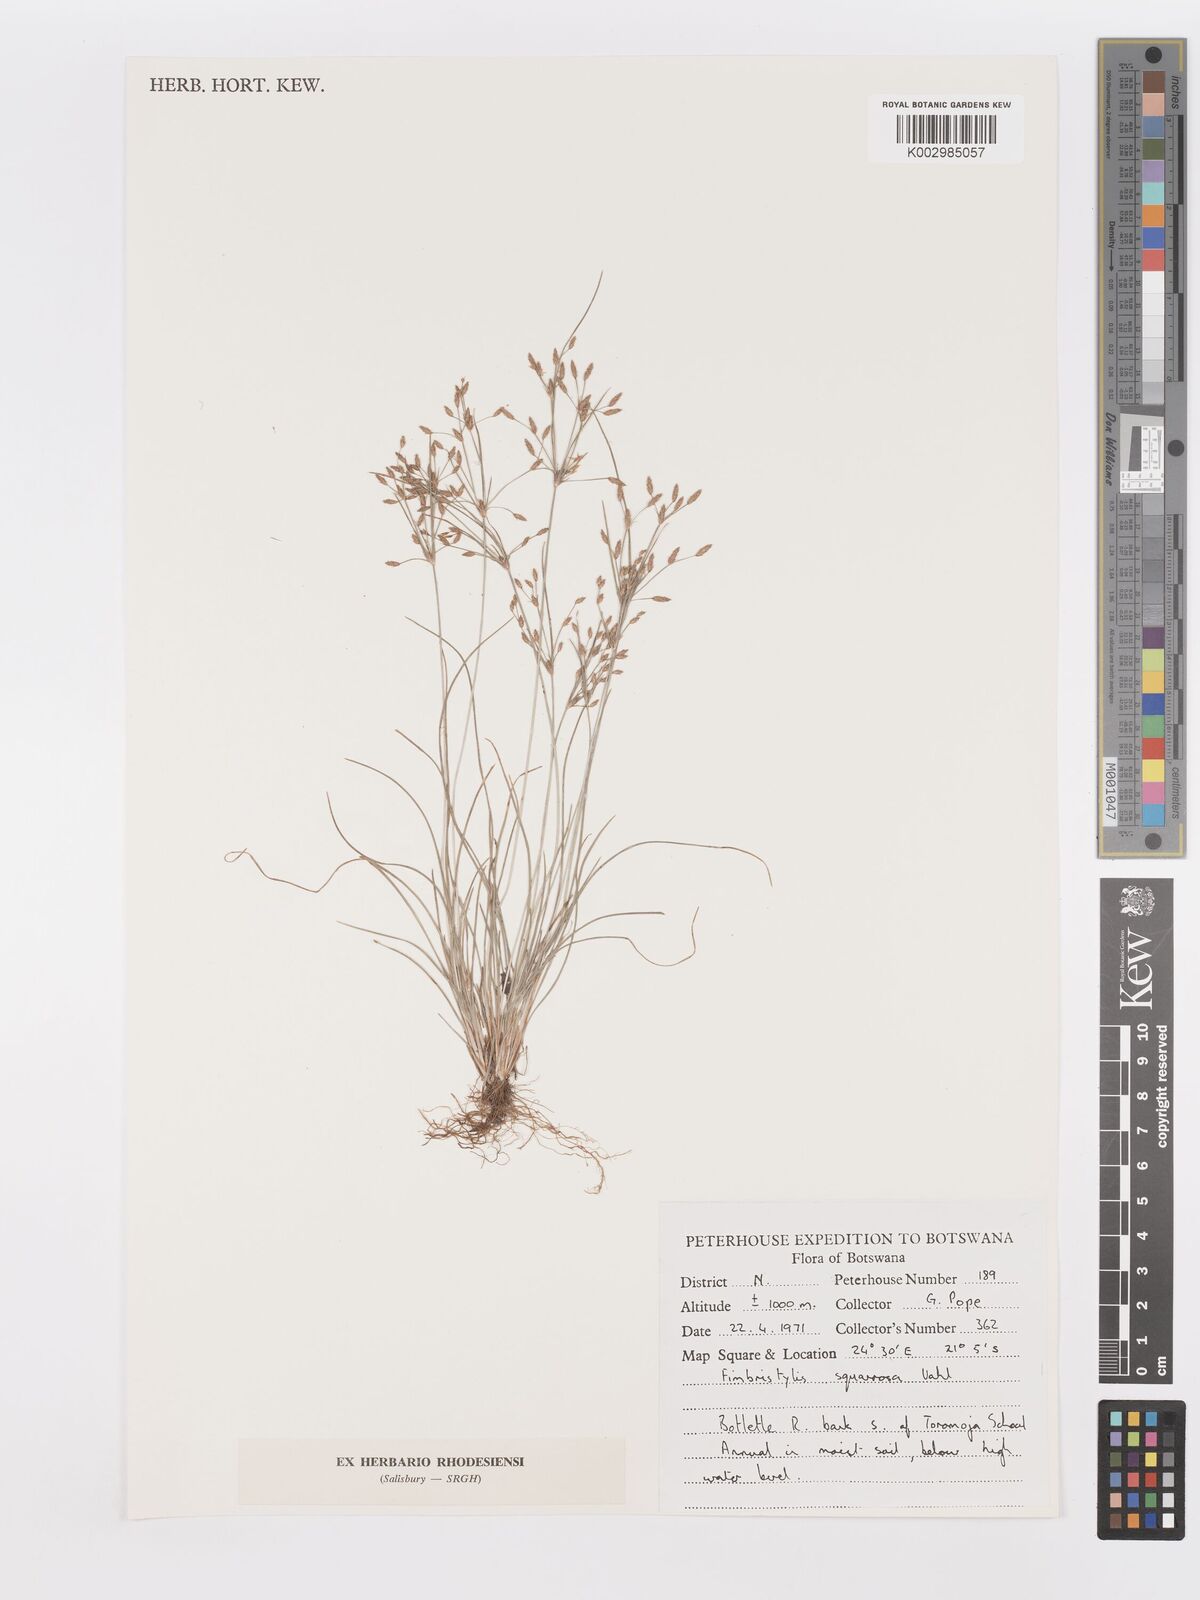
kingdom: Plantae
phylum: Tracheophyta
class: Liliopsida
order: Poales
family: Cyperaceae
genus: Fimbristylis
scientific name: Fimbristylis velata
